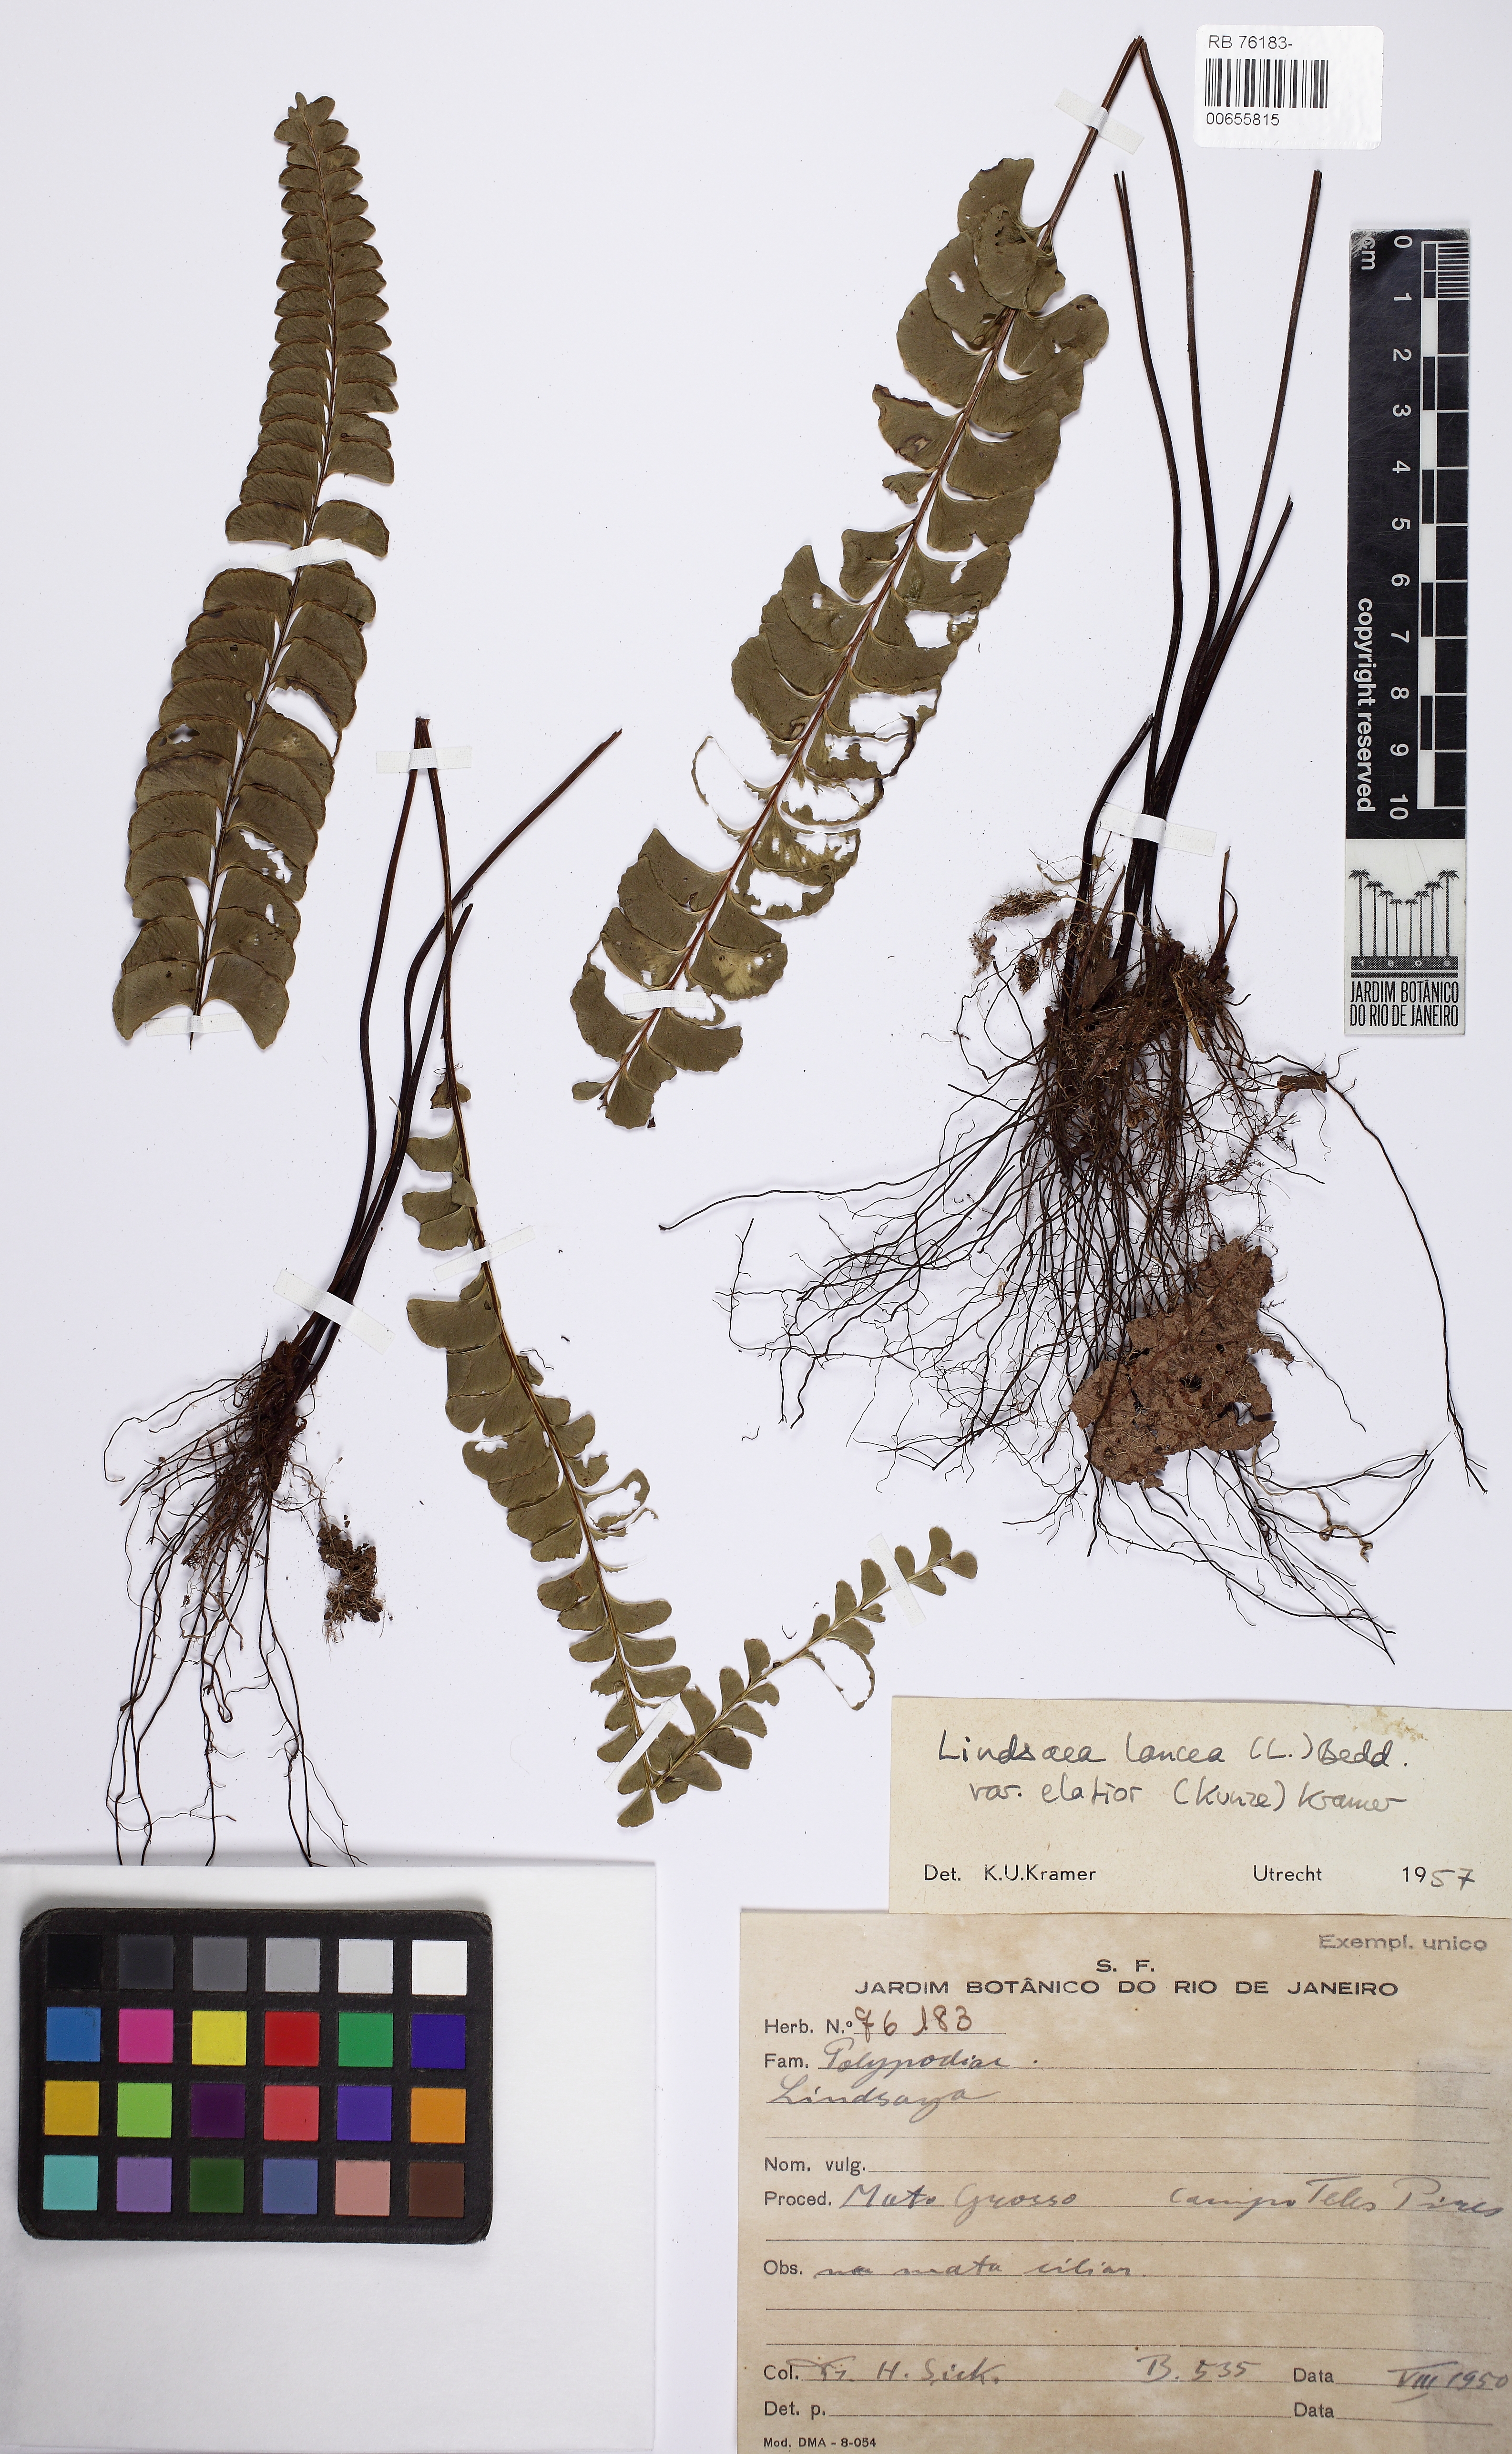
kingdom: Plantae
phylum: Tracheophyta
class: Polypodiopsida
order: Polypodiales
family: Lindsaeaceae
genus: Lindsaea
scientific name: Lindsaea elatior
